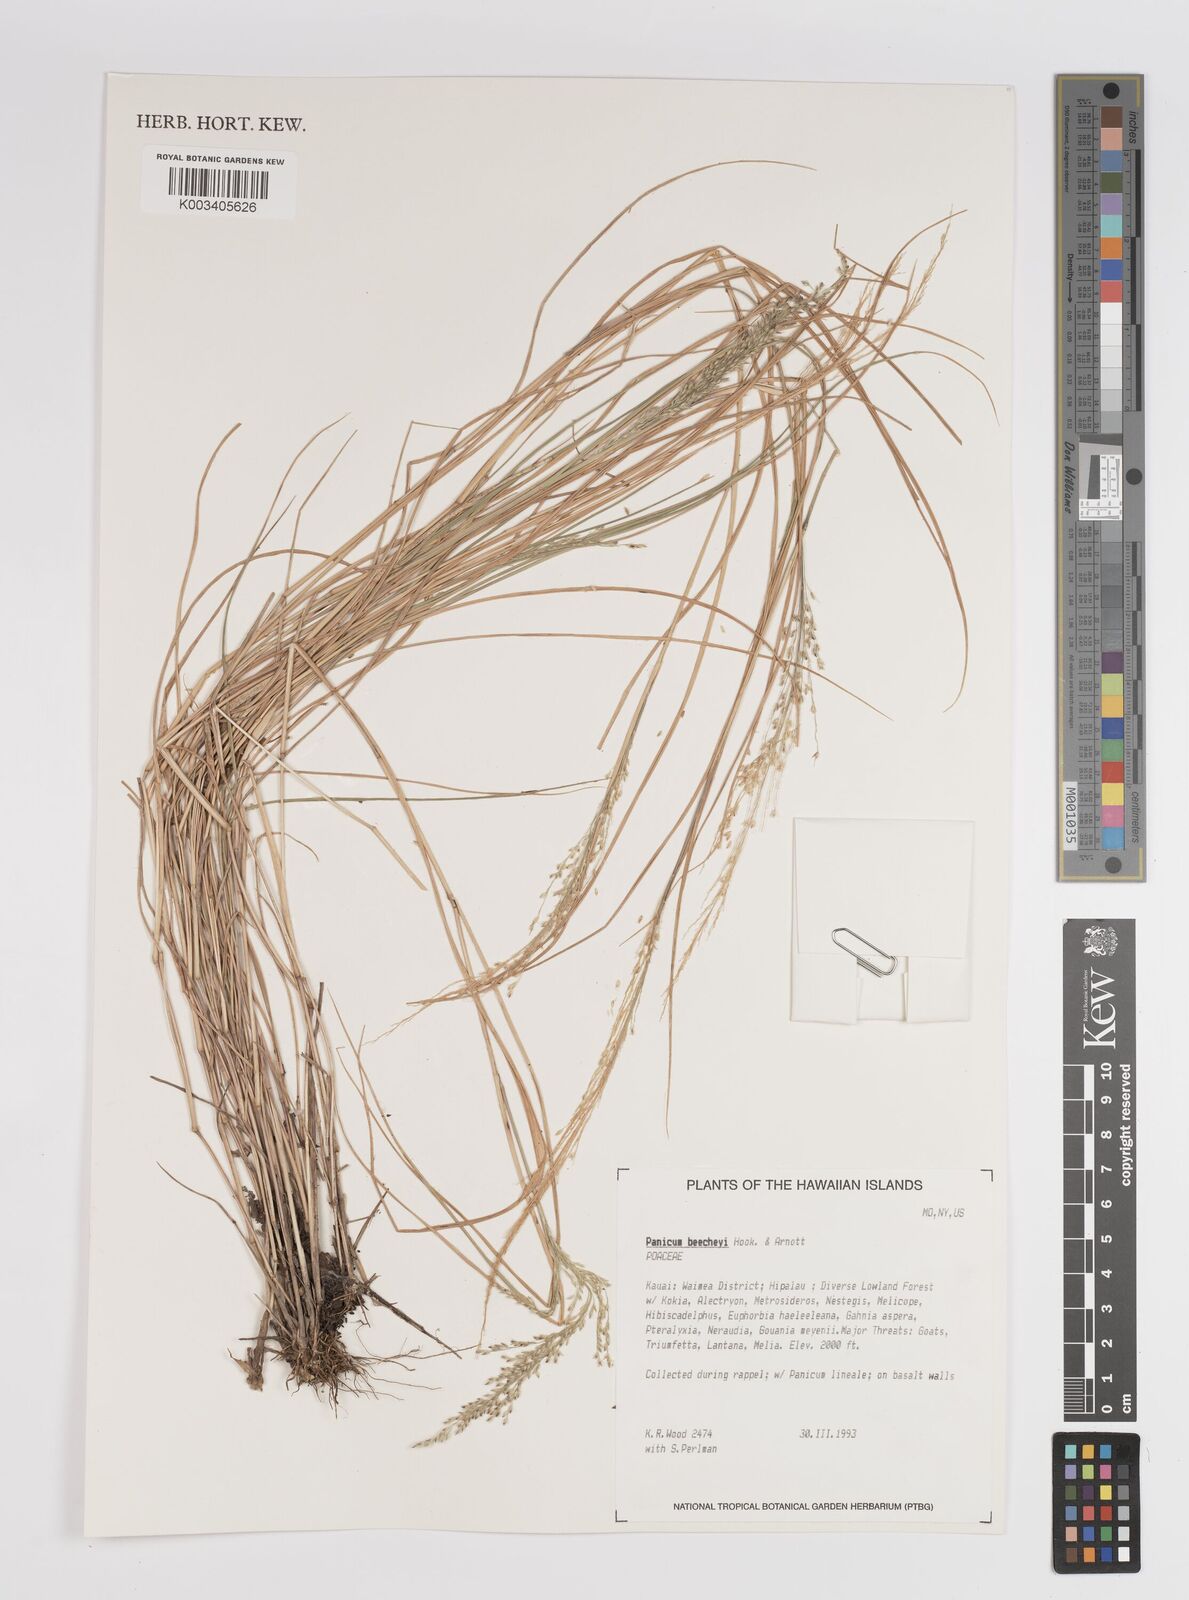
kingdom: Plantae
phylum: Tracheophyta
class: Liliopsida
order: Poales
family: Poaceae
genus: Panicum
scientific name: Panicum beecheyi
